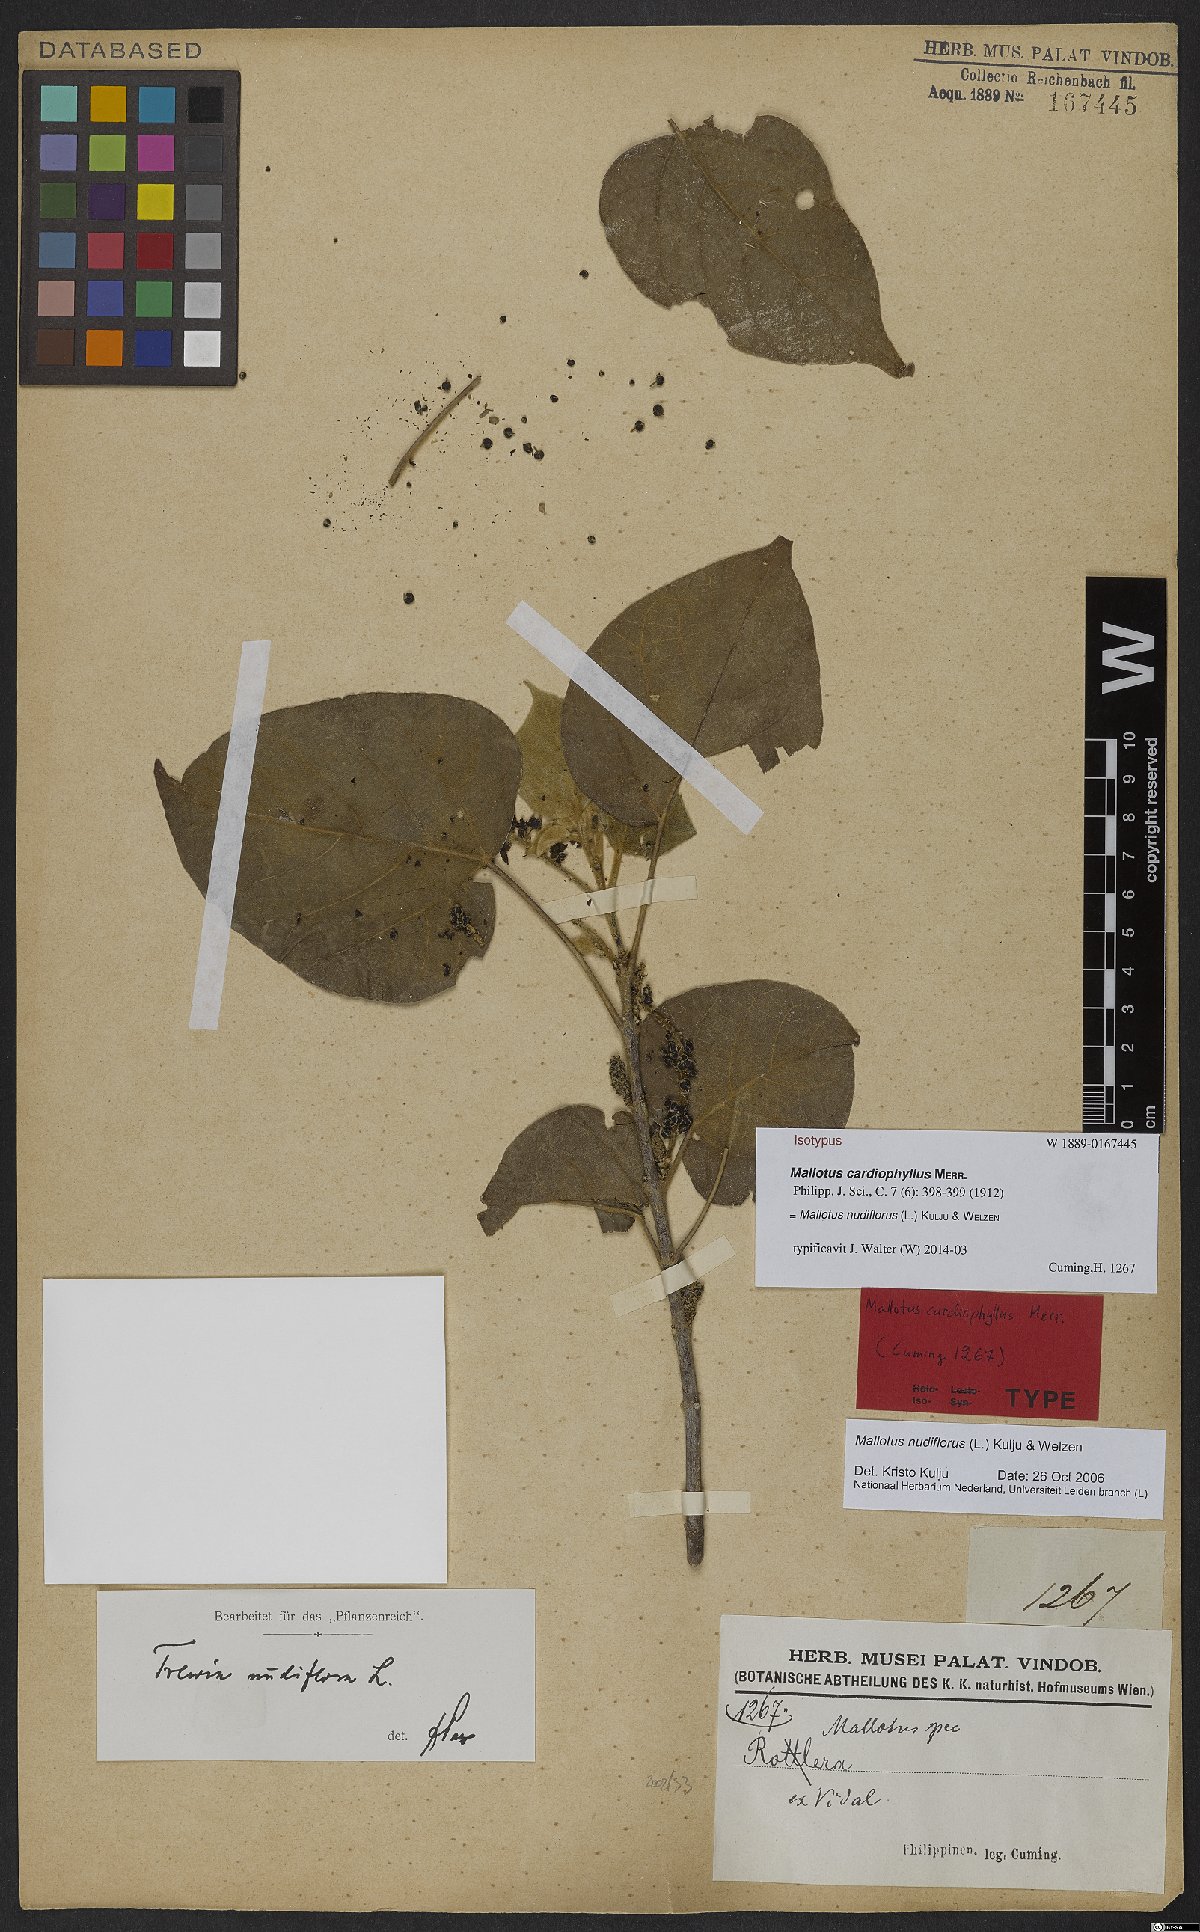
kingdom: Plantae
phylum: Tracheophyta
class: Magnoliopsida
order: Malpighiales
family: Euphorbiaceae
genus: Mallotus
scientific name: Mallotus nudiflorus
